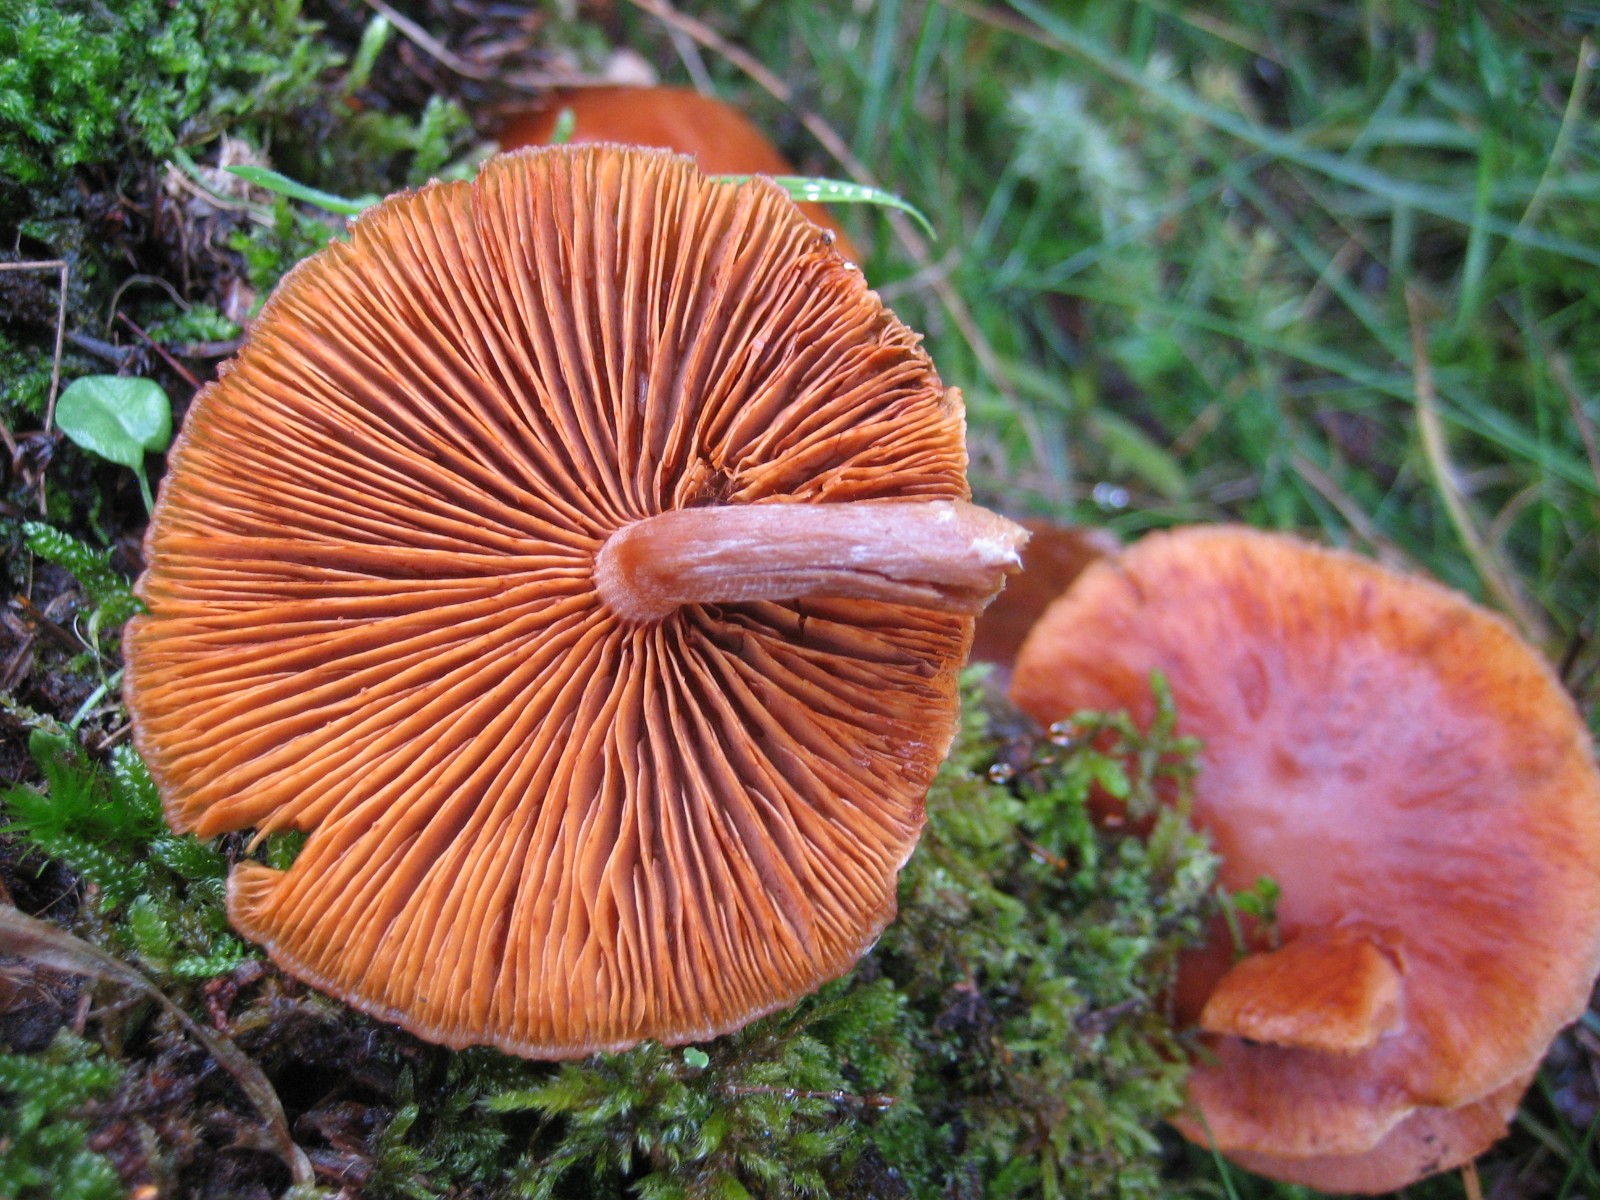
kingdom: Fungi
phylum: Basidiomycota
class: Agaricomycetes
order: Agaricales
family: Hymenogastraceae
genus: Gymnopilus
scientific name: Gymnopilus penetrans
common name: plettet flammehat
